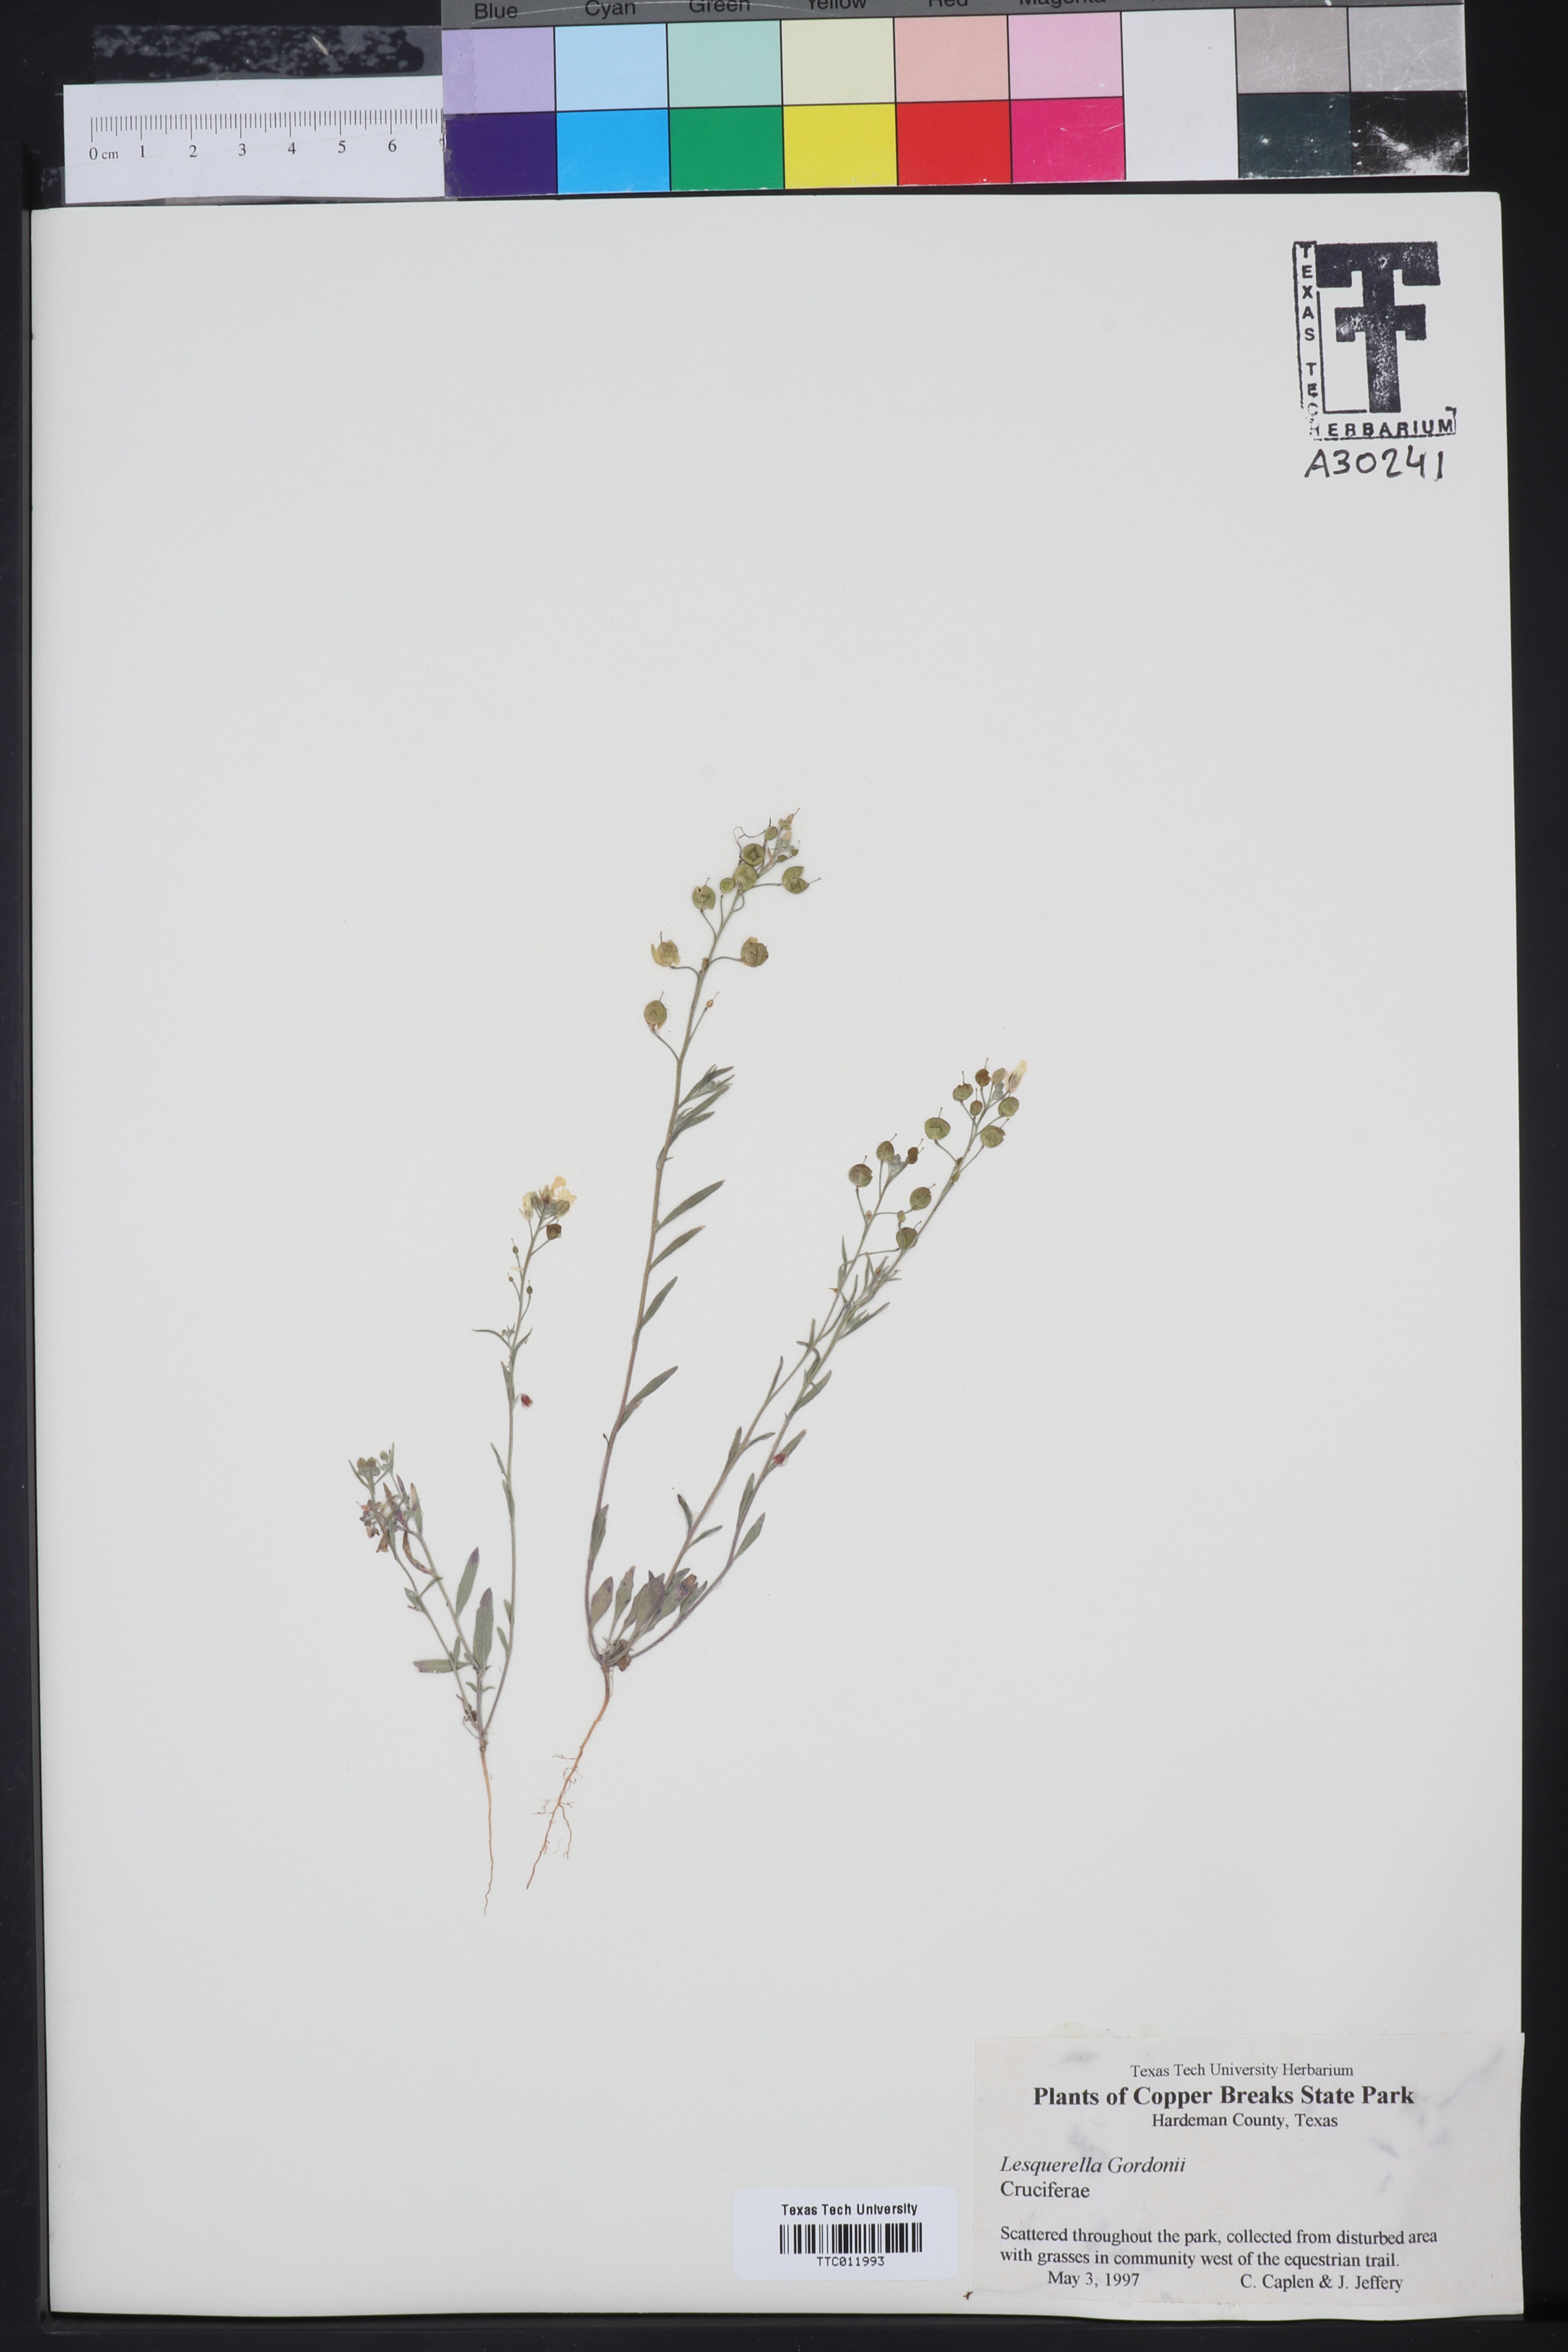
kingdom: Plantae
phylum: Tracheophyta
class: Magnoliopsida
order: Brassicales
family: Brassicaceae
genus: Physaria
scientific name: Physaria gordonii
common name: Gordon's bladderpod
